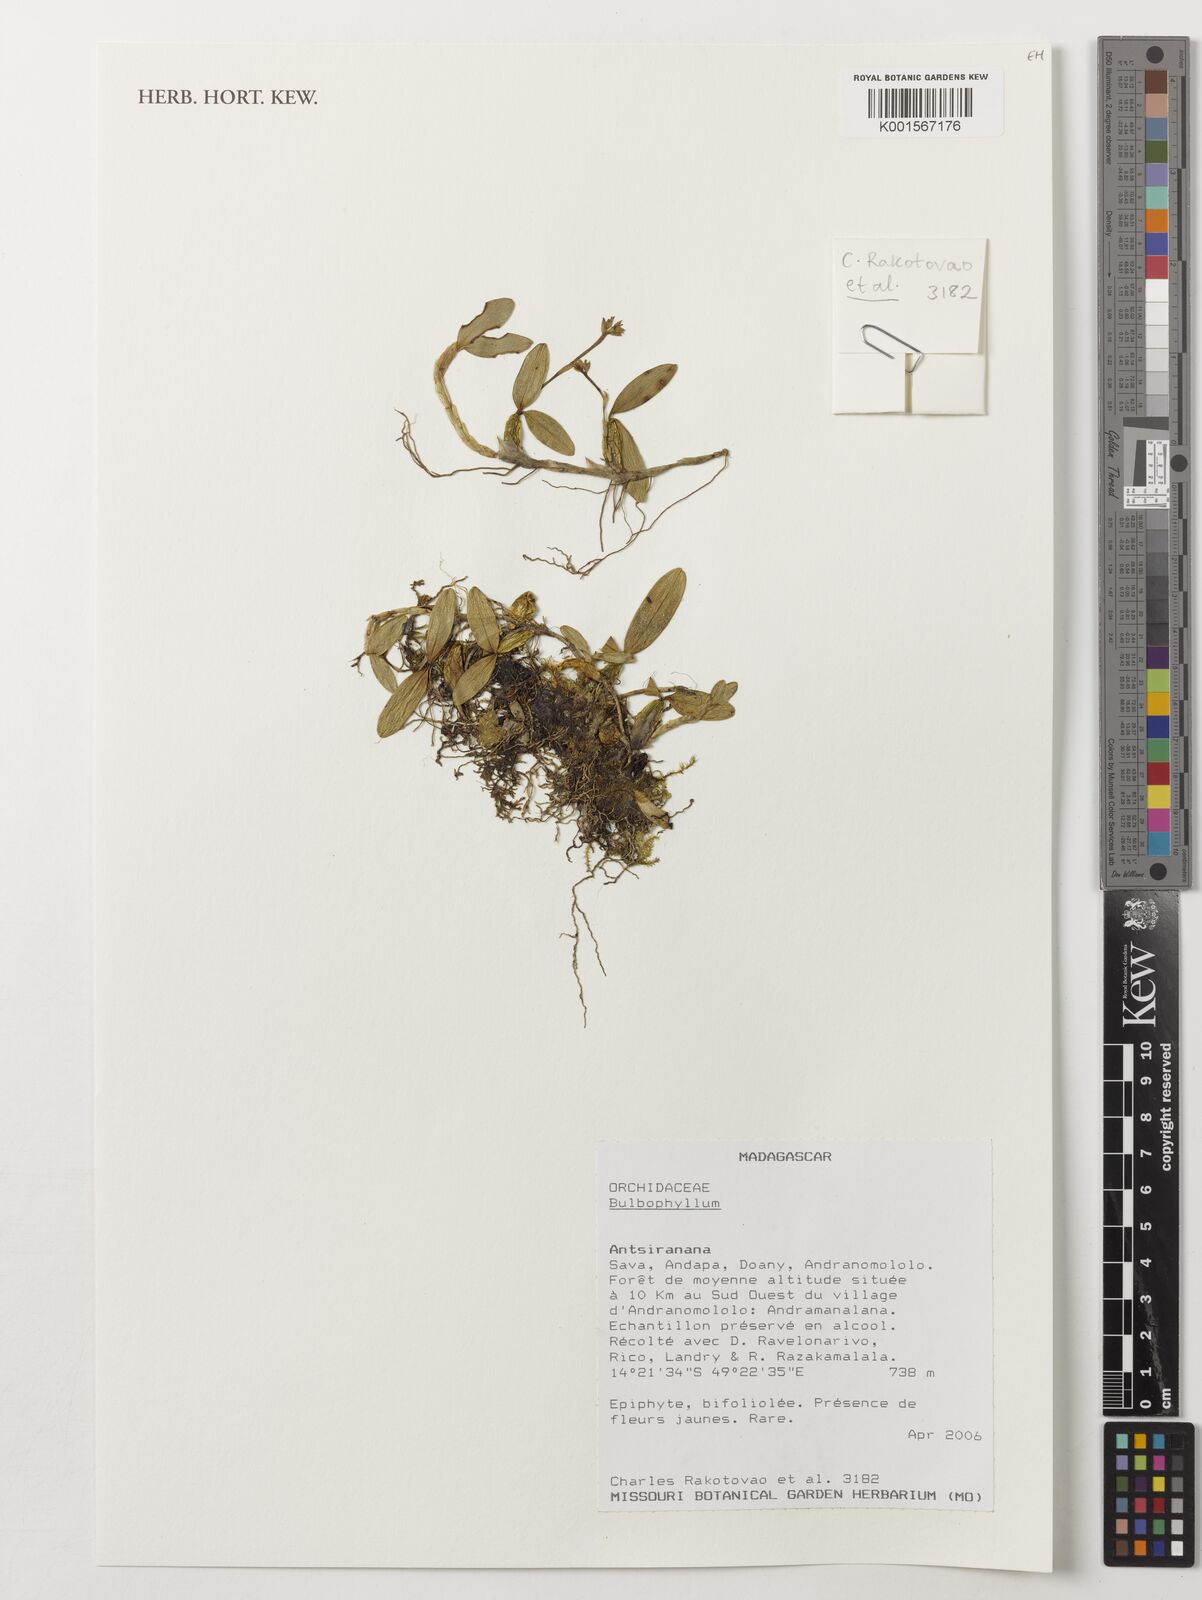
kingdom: Plantae
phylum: Tracheophyta
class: Liliopsida
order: Asparagales
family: Orchidaceae
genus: Bulbophyllum
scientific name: Bulbophyllum
